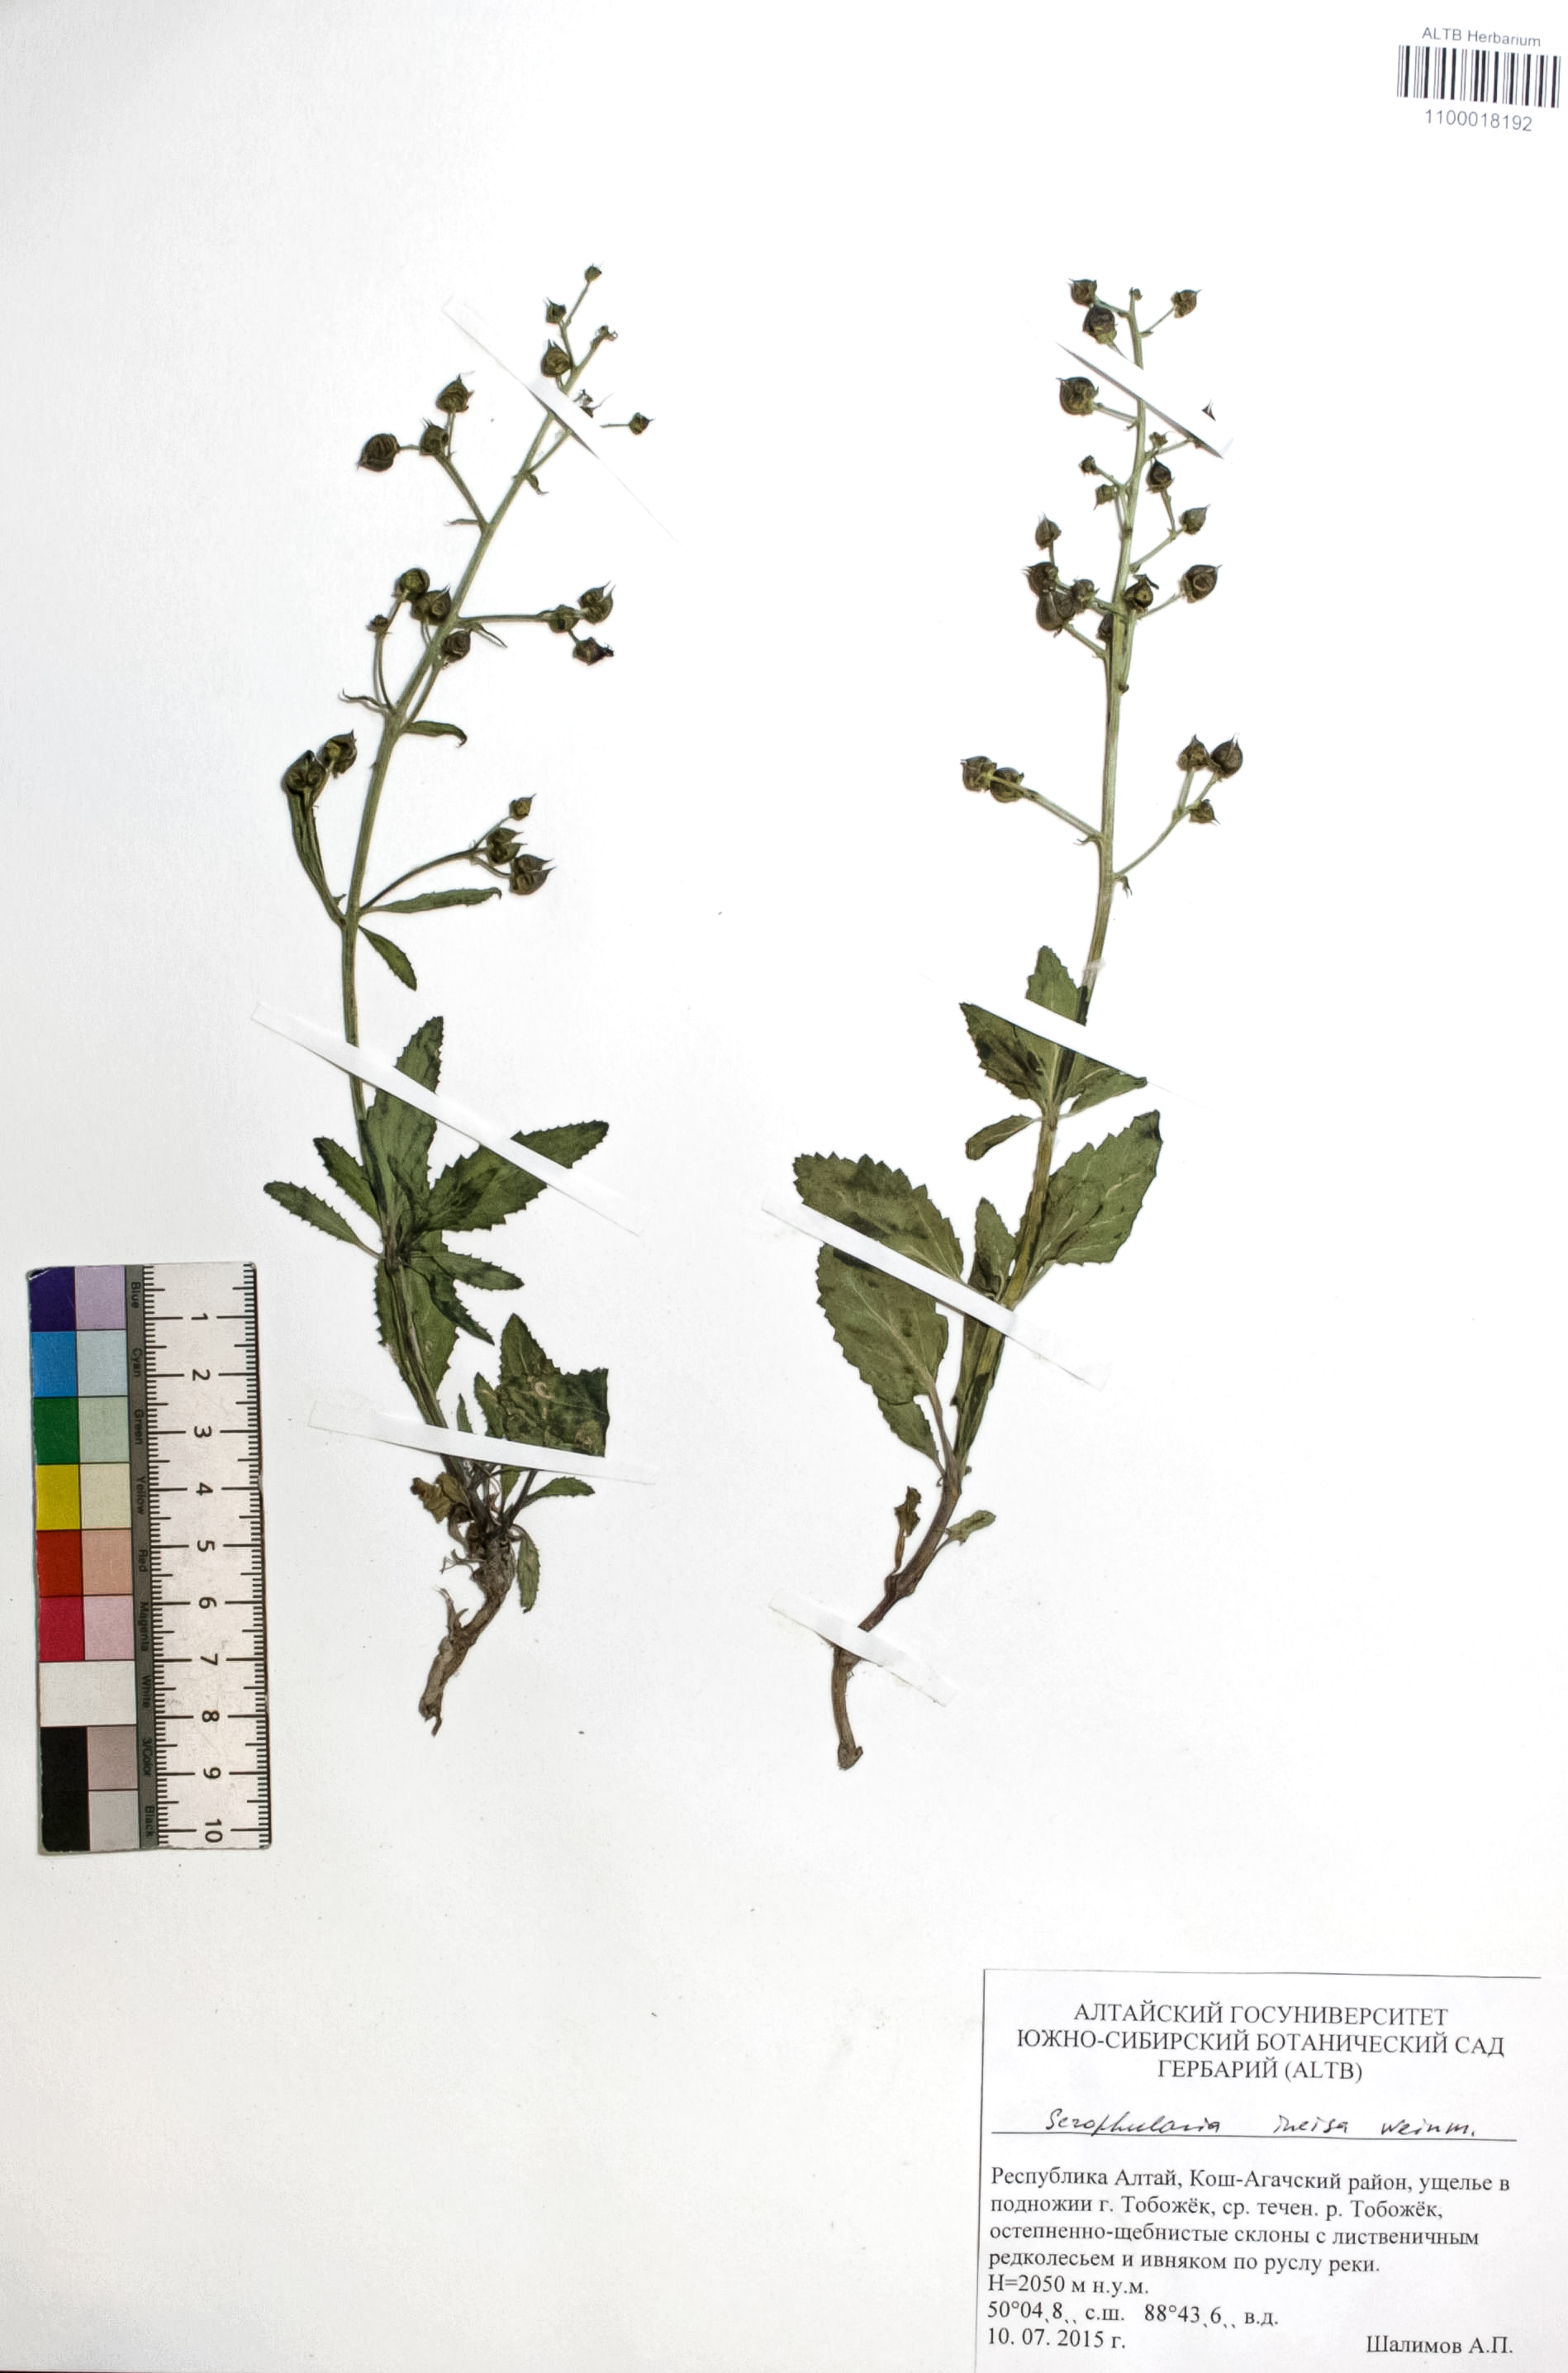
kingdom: Plantae
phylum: Tracheophyta
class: Magnoliopsida
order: Lamiales
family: Scrophulariaceae
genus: Scrophularia
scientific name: Scrophularia incisa
